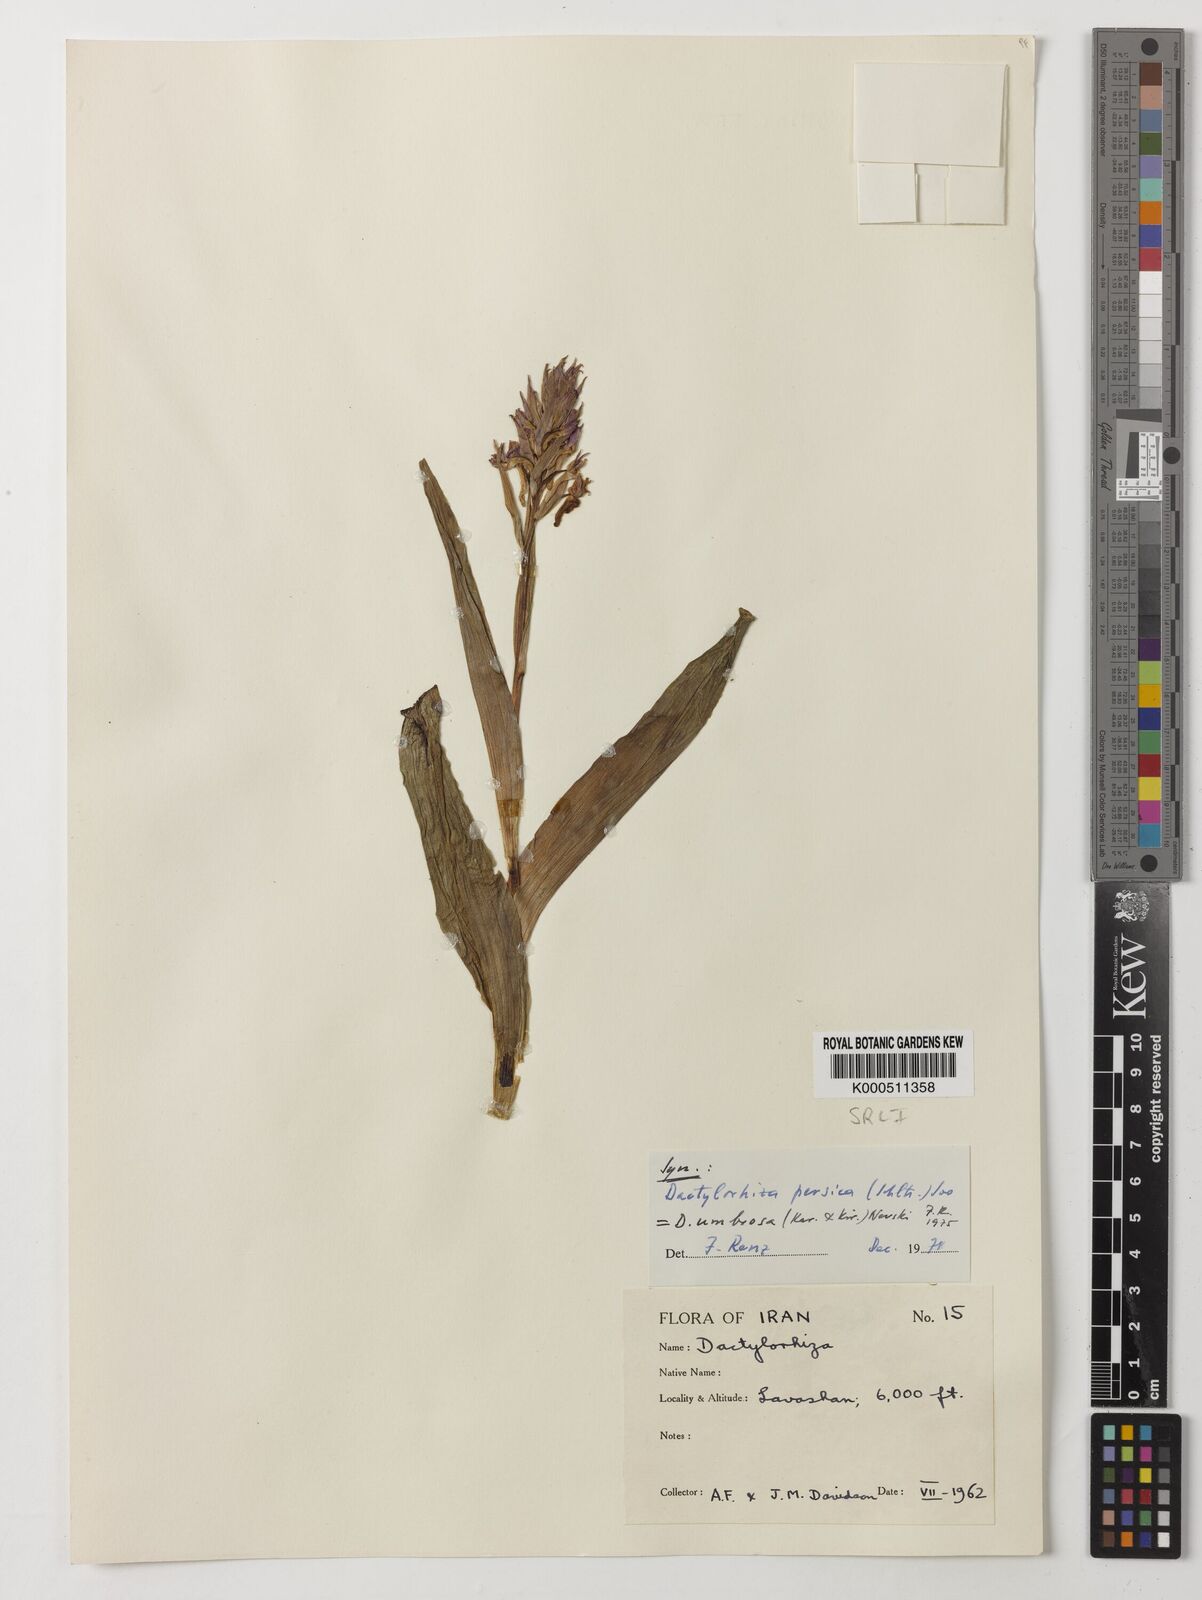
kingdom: Plantae
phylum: Tracheophyta
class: Liliopsida
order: Asparagales
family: Orchidaceae
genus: Dactylorhiza
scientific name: Dactylorhiza
